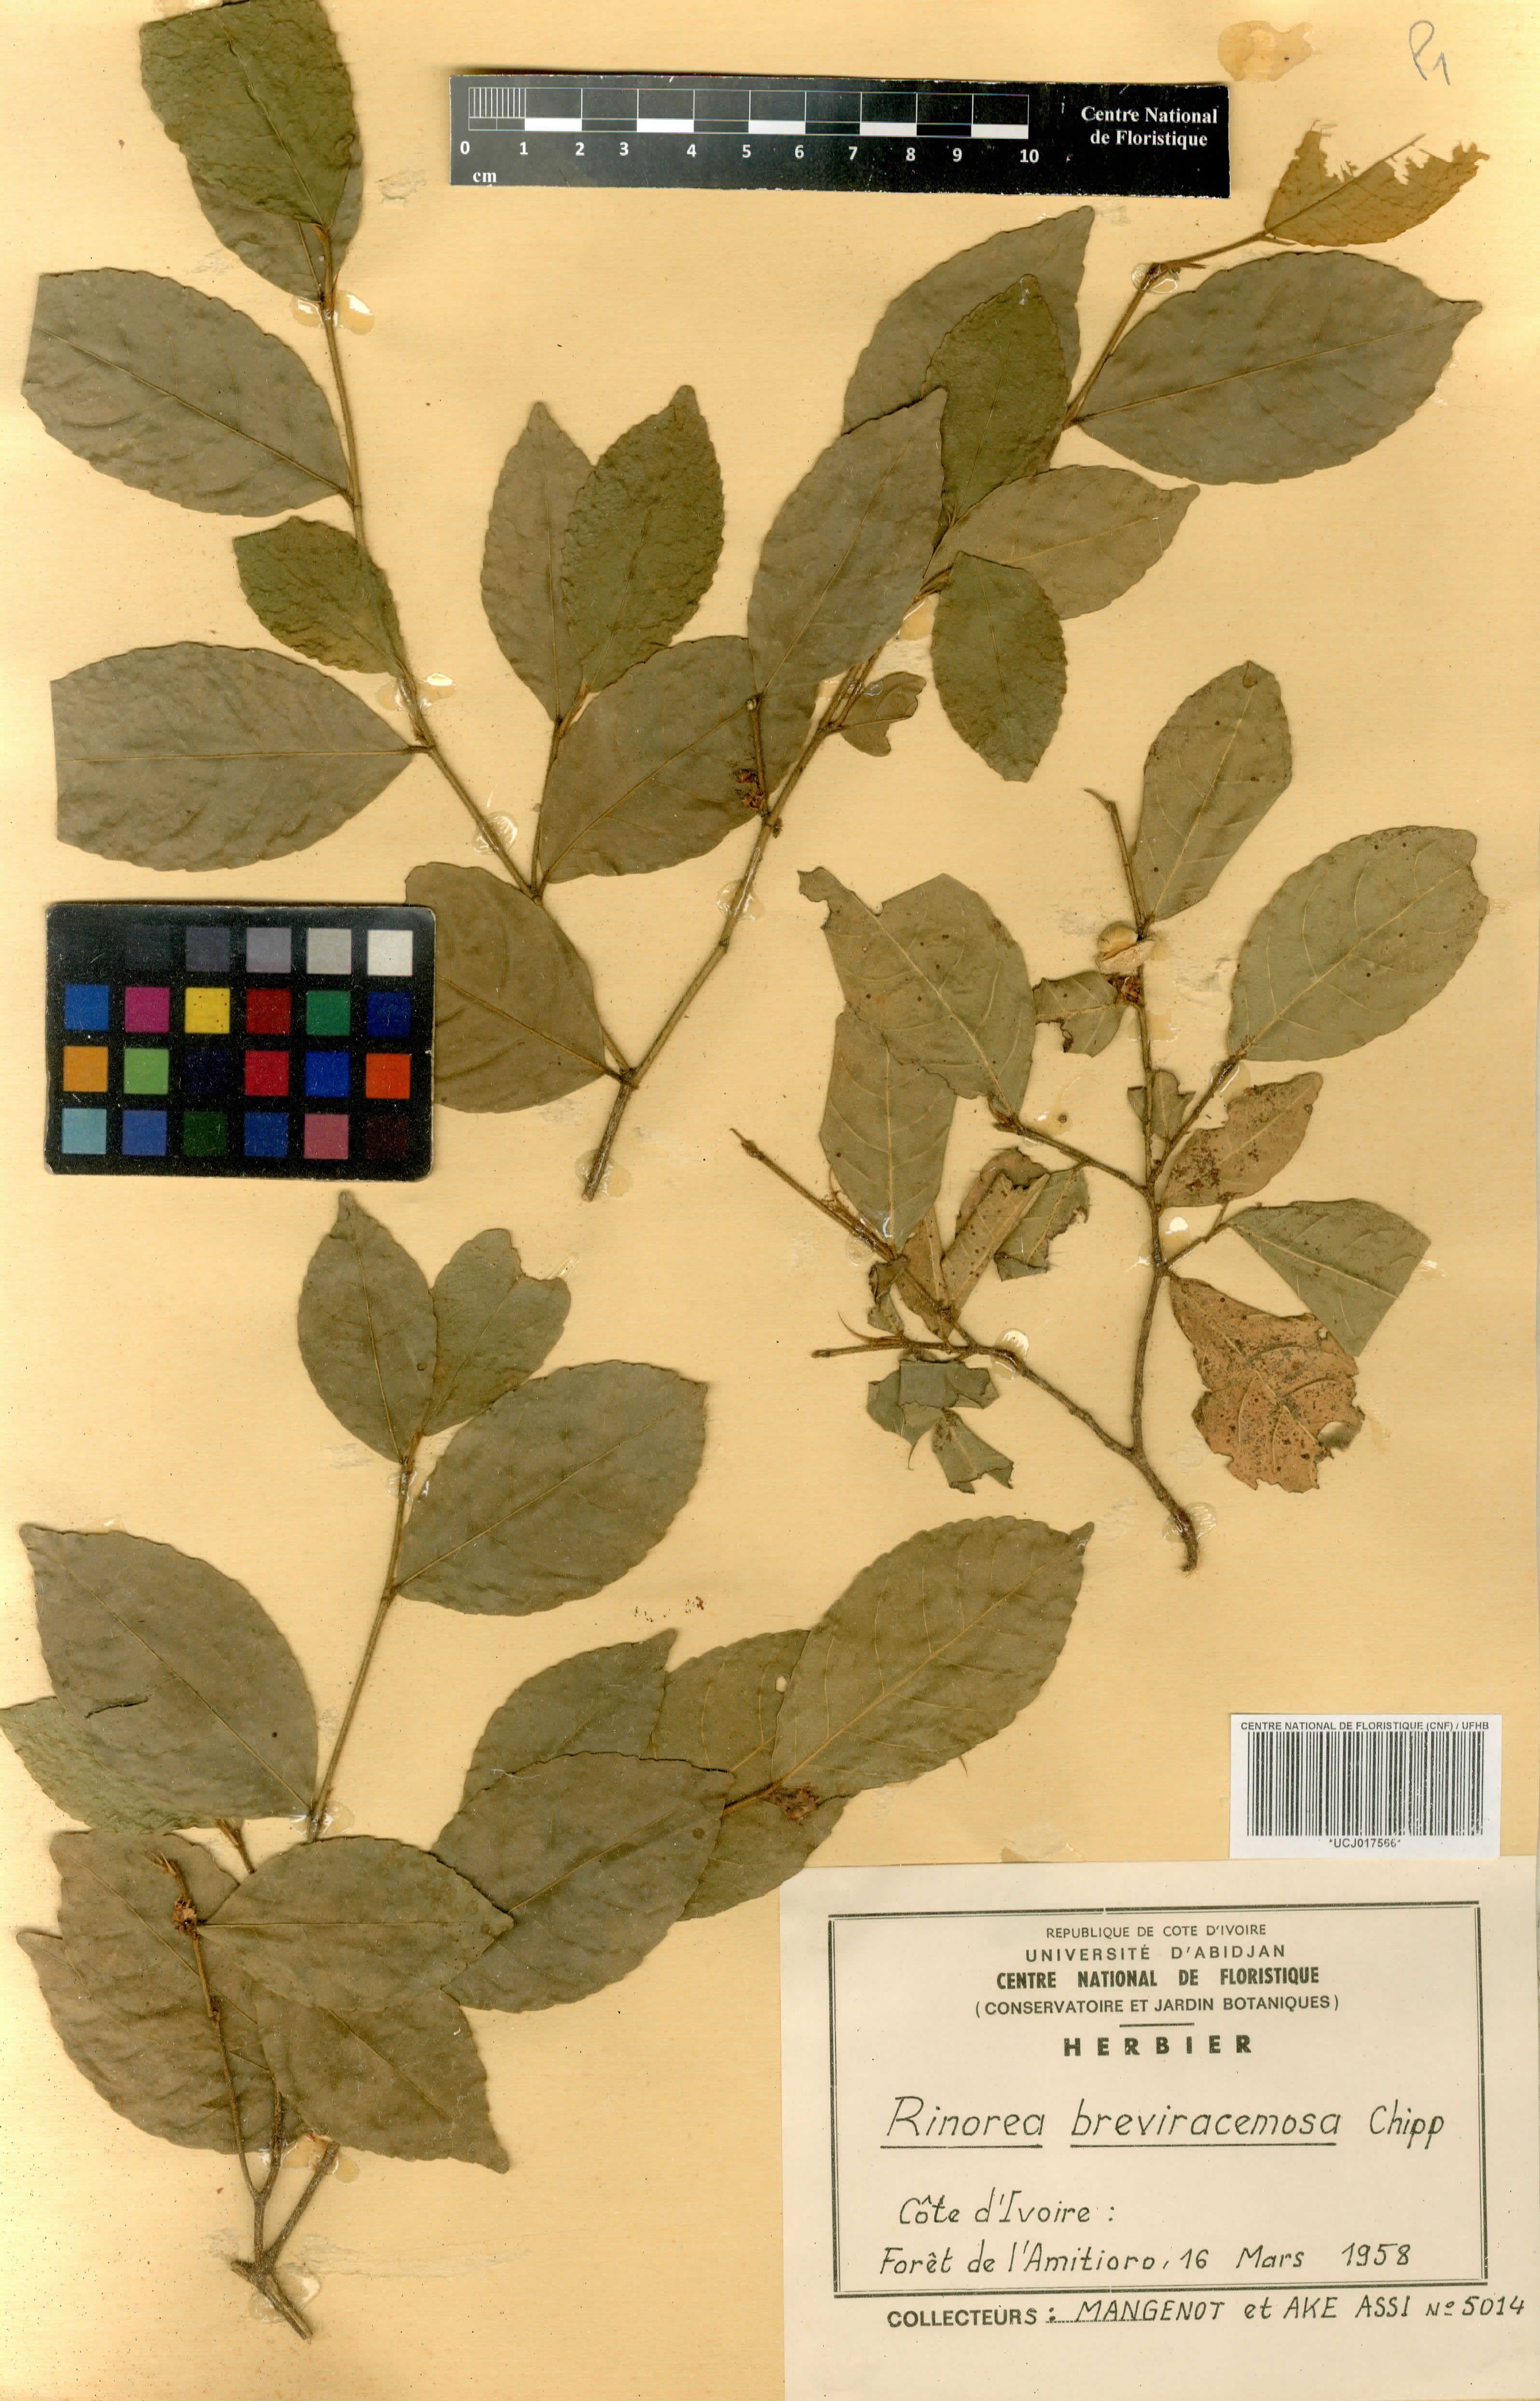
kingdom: Plantae
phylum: Tracheophyta
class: Magnoliopsida
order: Malpighiales
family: Violaceae
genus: Rinorea
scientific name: Rinorea breviracemosa
